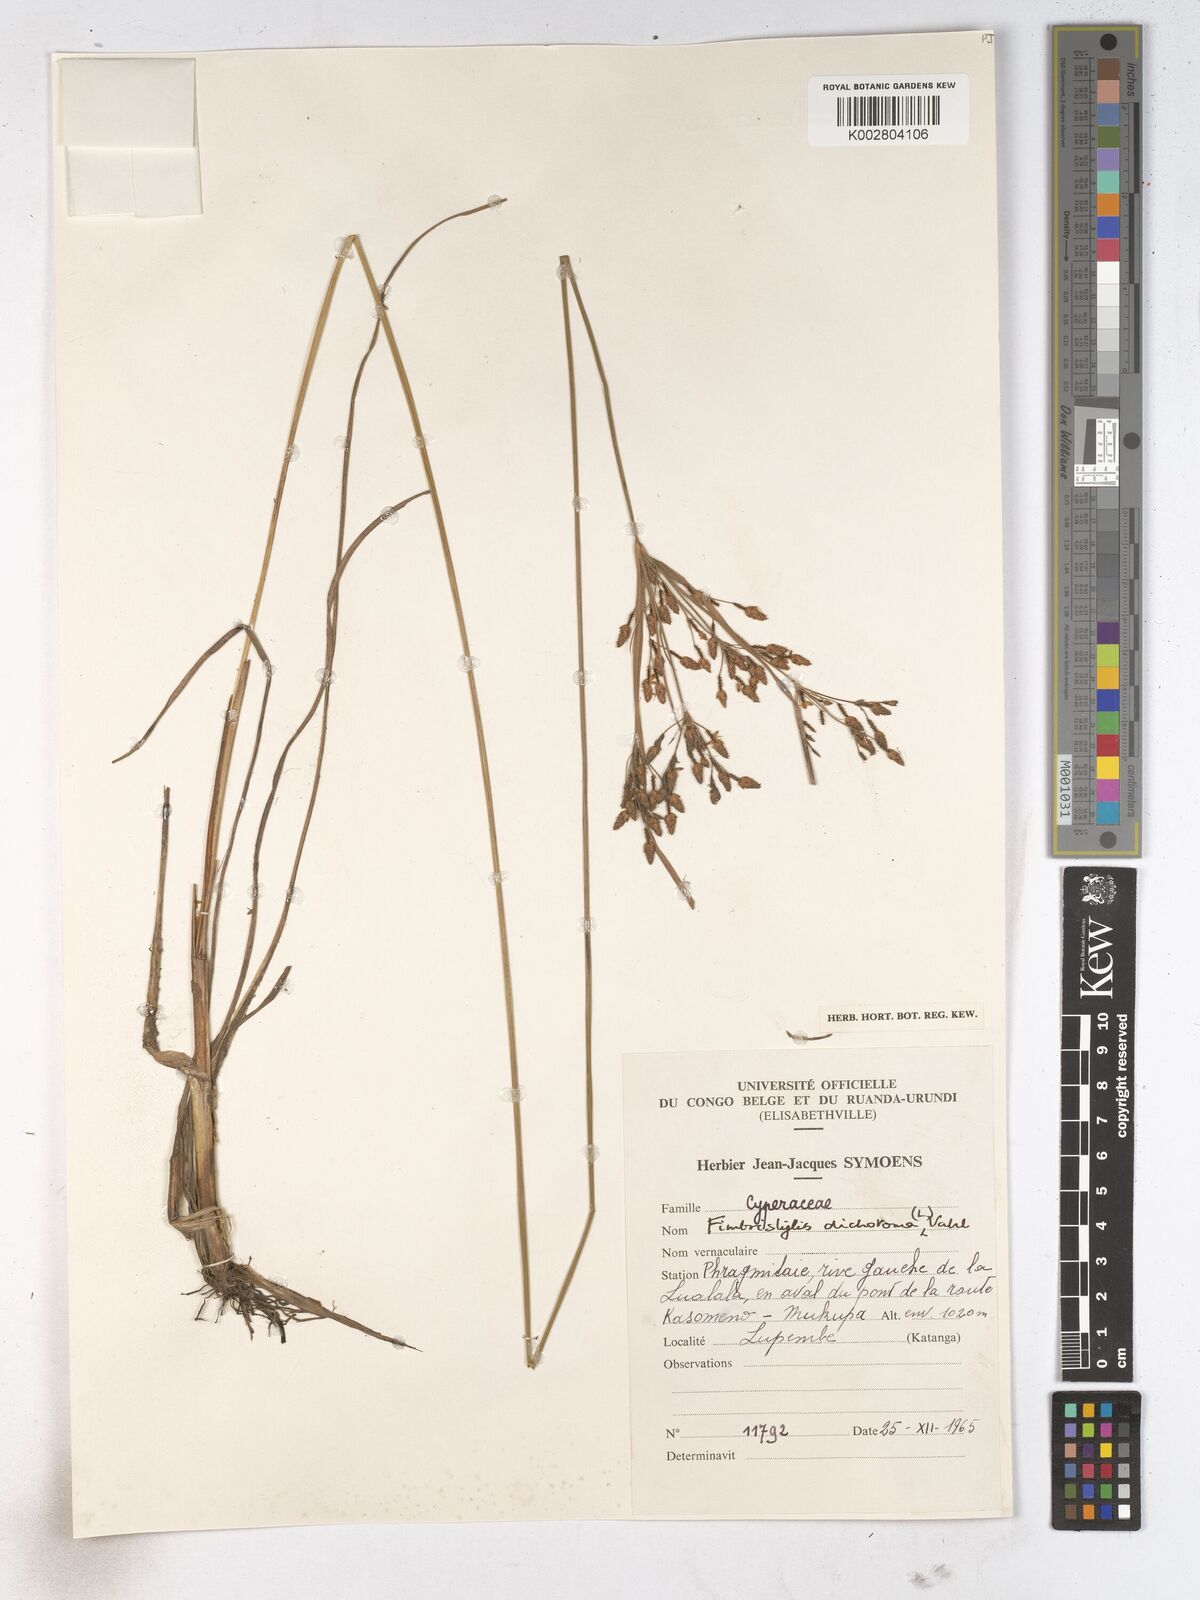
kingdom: Plantae
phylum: Tracheophyta
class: Liliopsida
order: Poales
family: Cyperaceae
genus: Fimbristylis
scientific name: Fimbristylis dichotoma
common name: Forked fimbry
